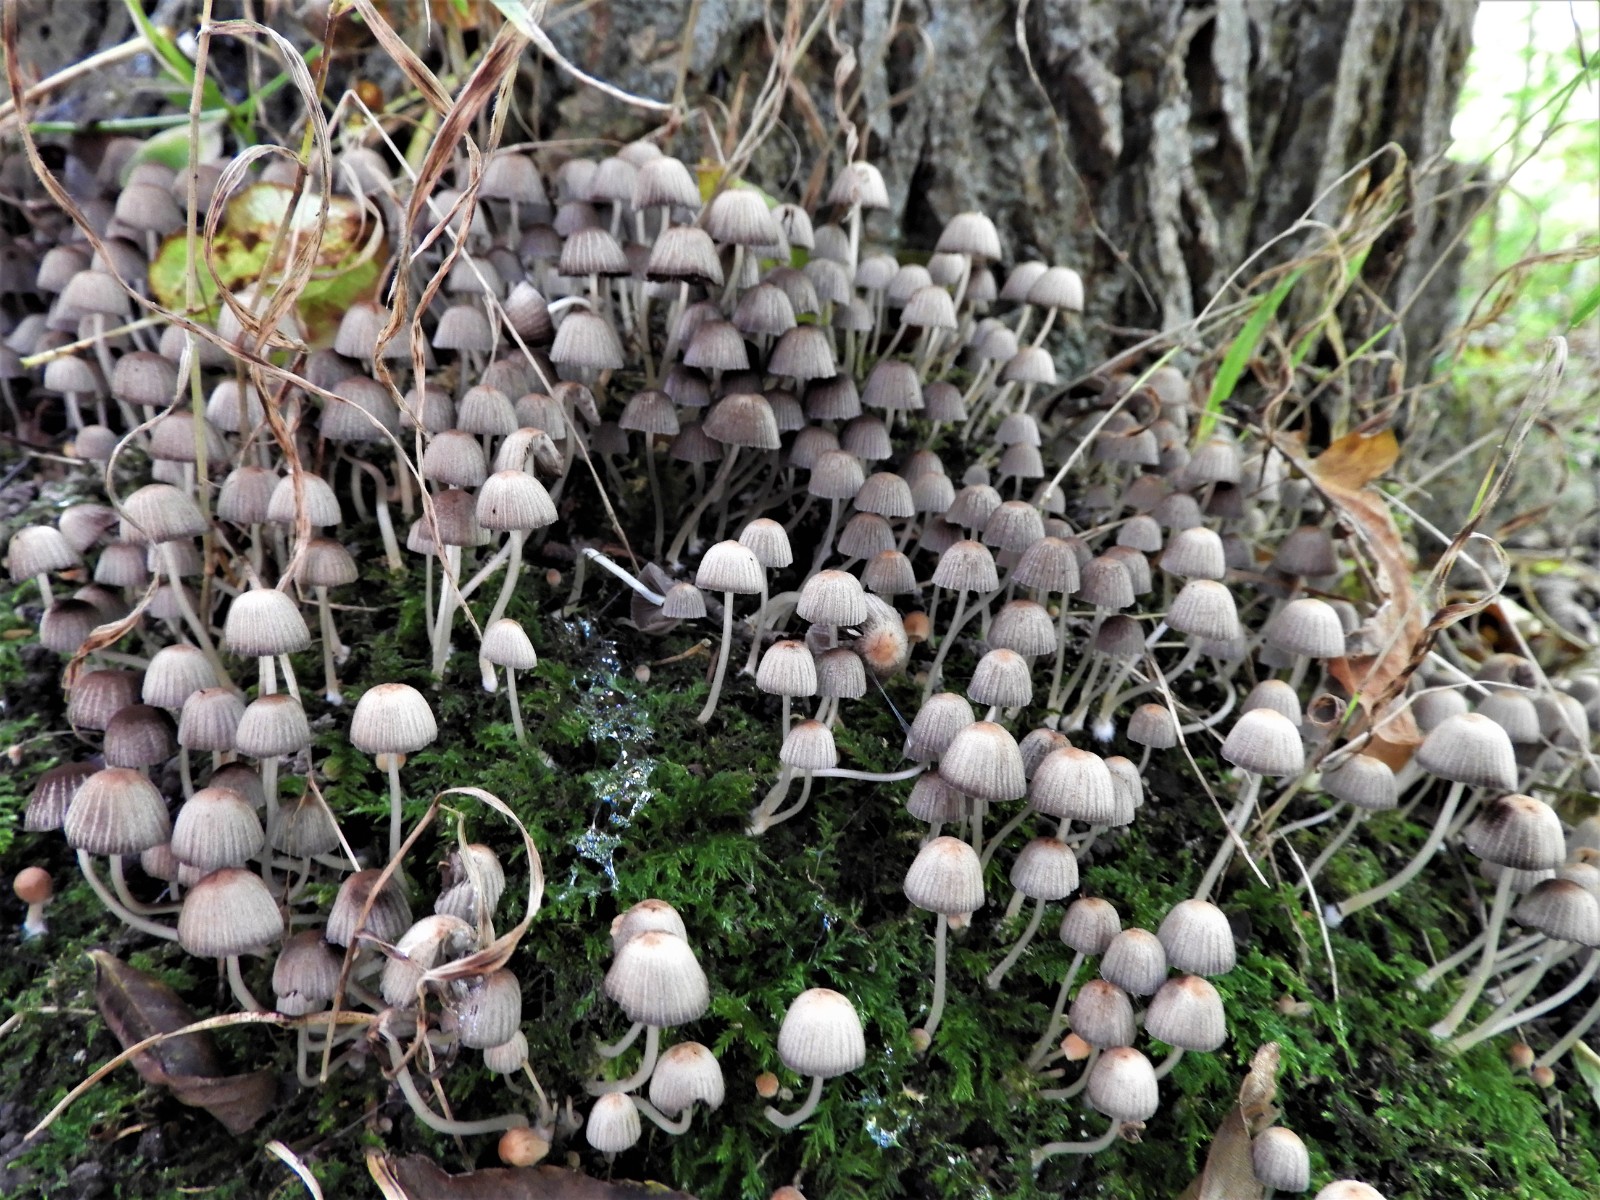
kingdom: Fungi
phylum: Basidiomycota
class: Agaricomycetes
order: Agaricales
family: Psathyrellaceae
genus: Coprinellus
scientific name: Coprinellus disseminatus
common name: bredsået blækhat
